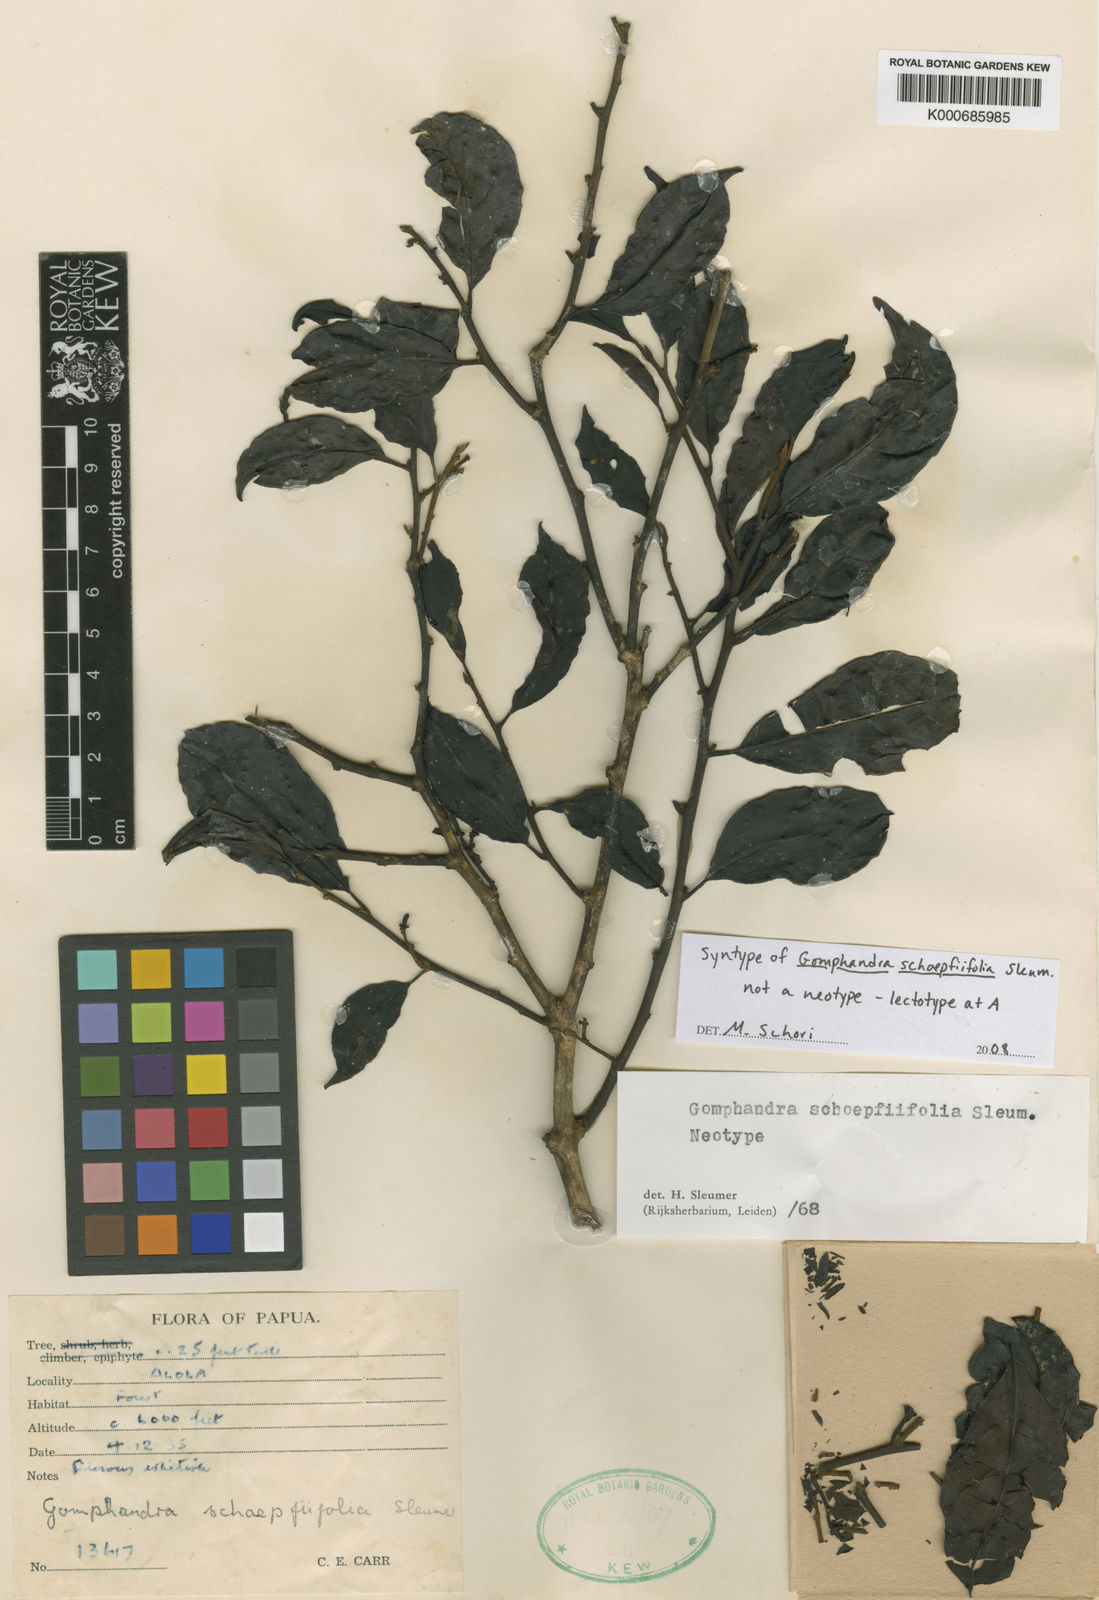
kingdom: Plantae
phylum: Tracheophyta
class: Magnoliopsida
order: Cardiopteridales
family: Stemonuraceae
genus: Gomphandra
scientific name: Gomphandra schoepfiifolia
